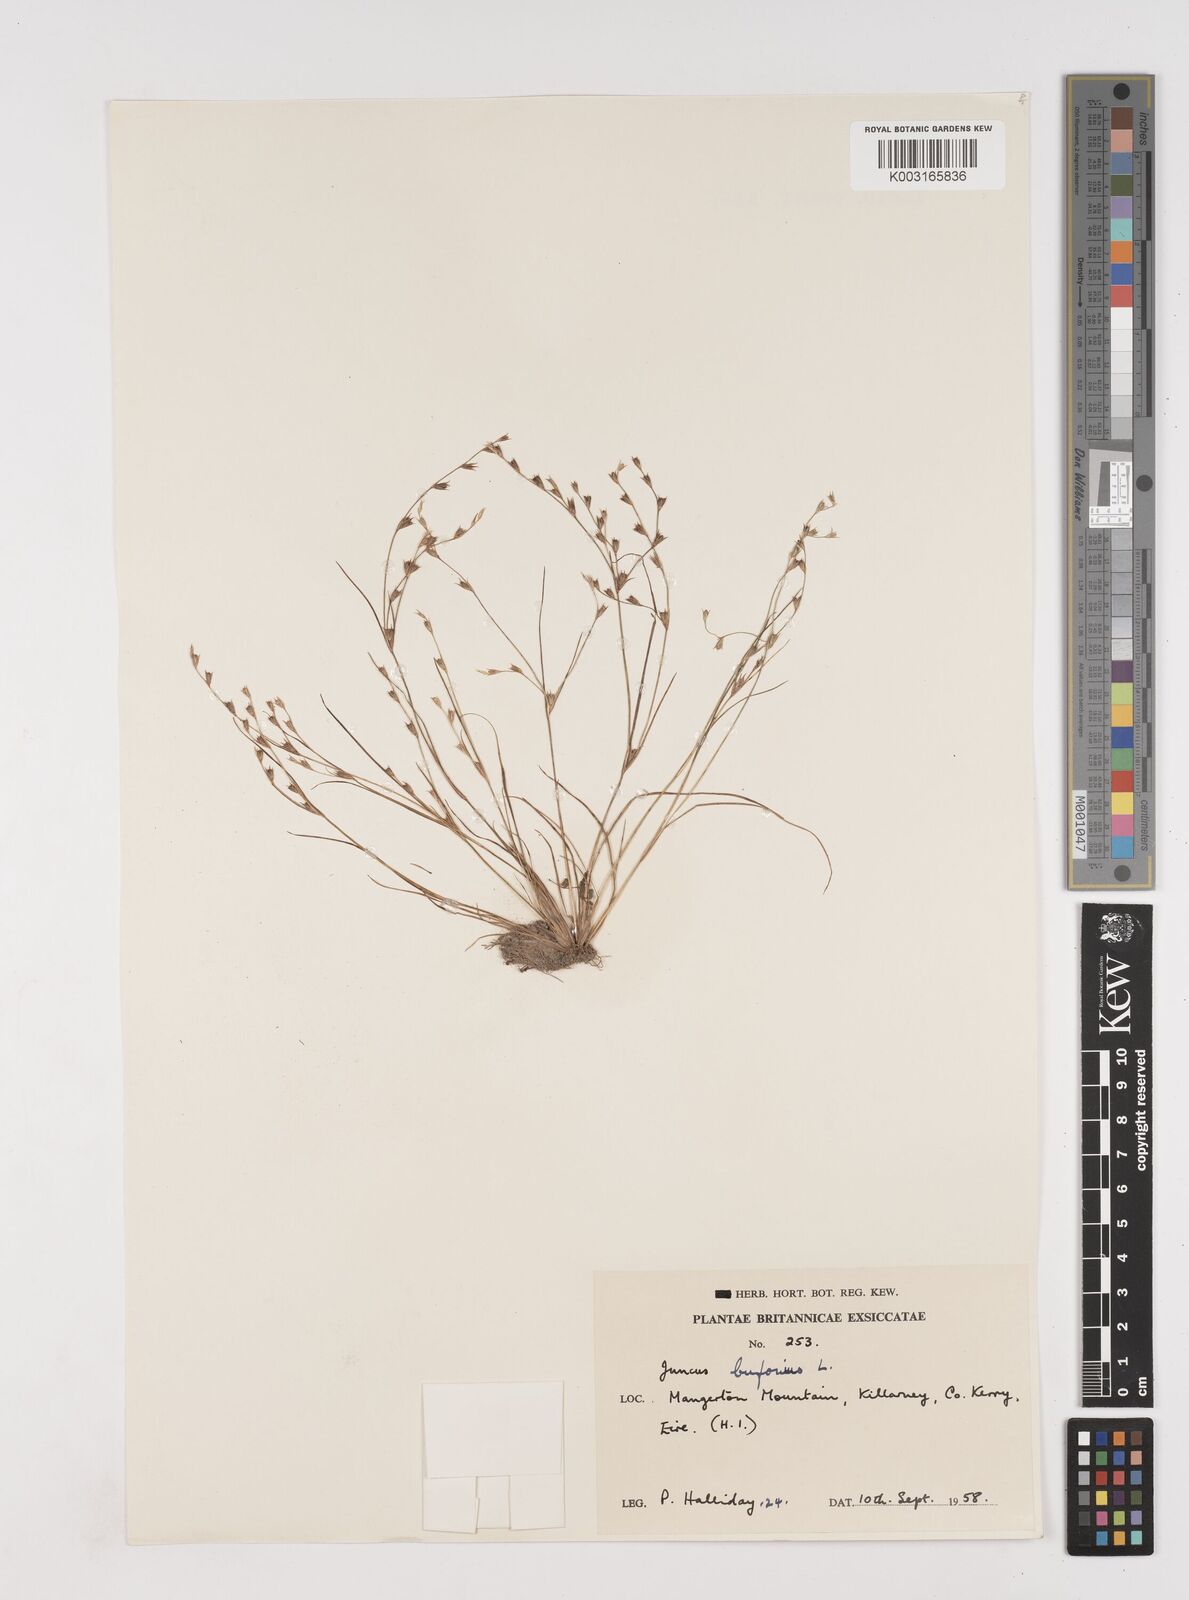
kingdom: Plantae
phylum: Tracheophyta
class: Liliopsida
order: Poales
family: Juncaceae
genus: Juncus
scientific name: Juncus bufonius
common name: Toad rush
